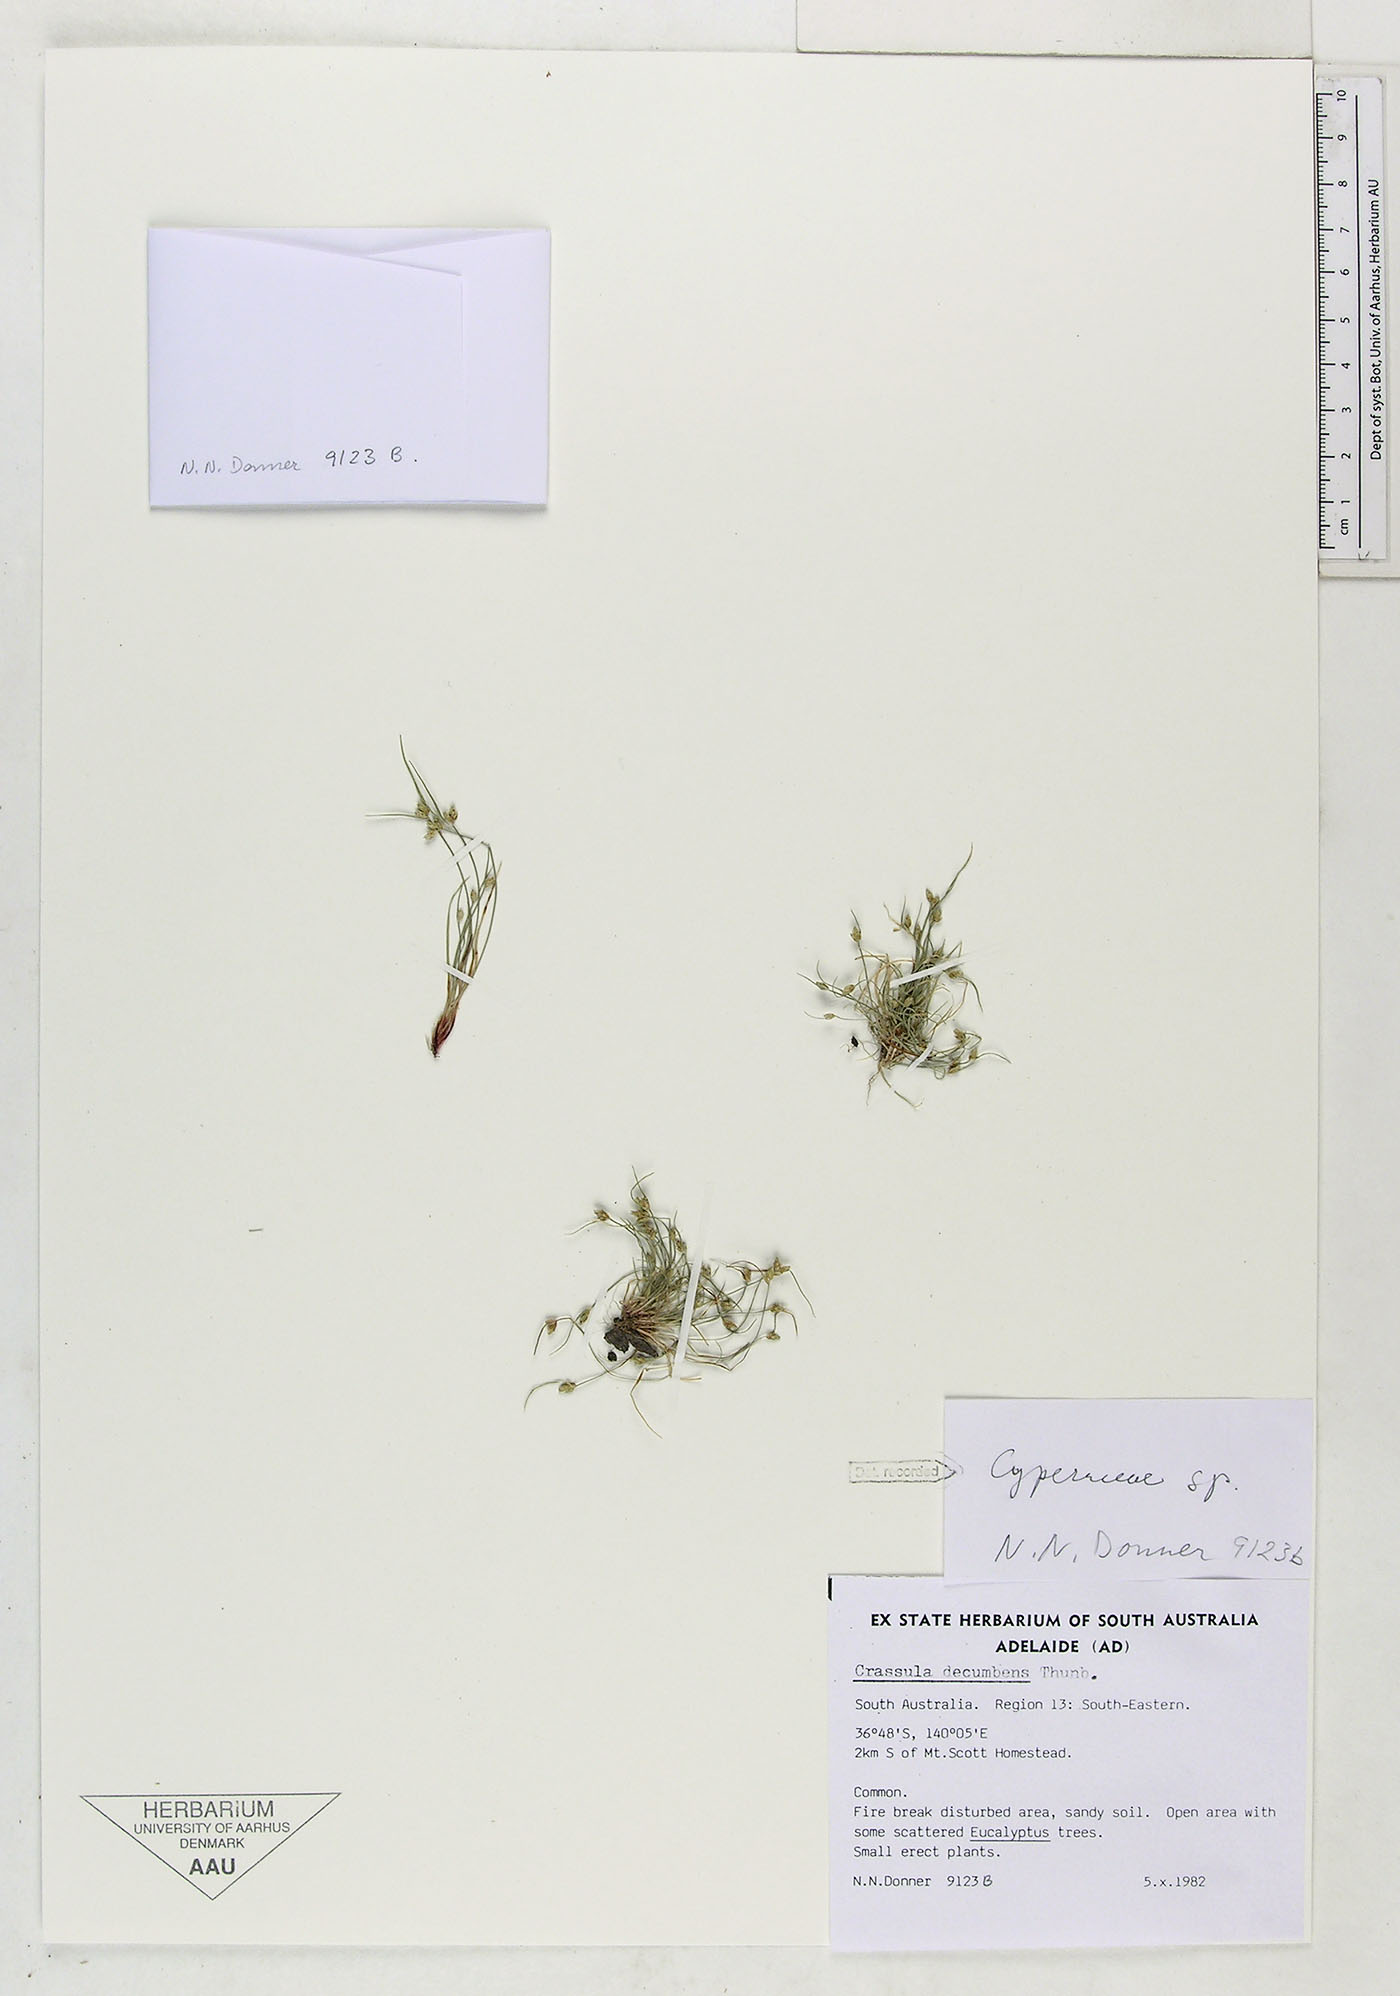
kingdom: Plantae
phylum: Tracheophyta
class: Liliopsida
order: Poales
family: Cyperaceae
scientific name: Cyperaceae
